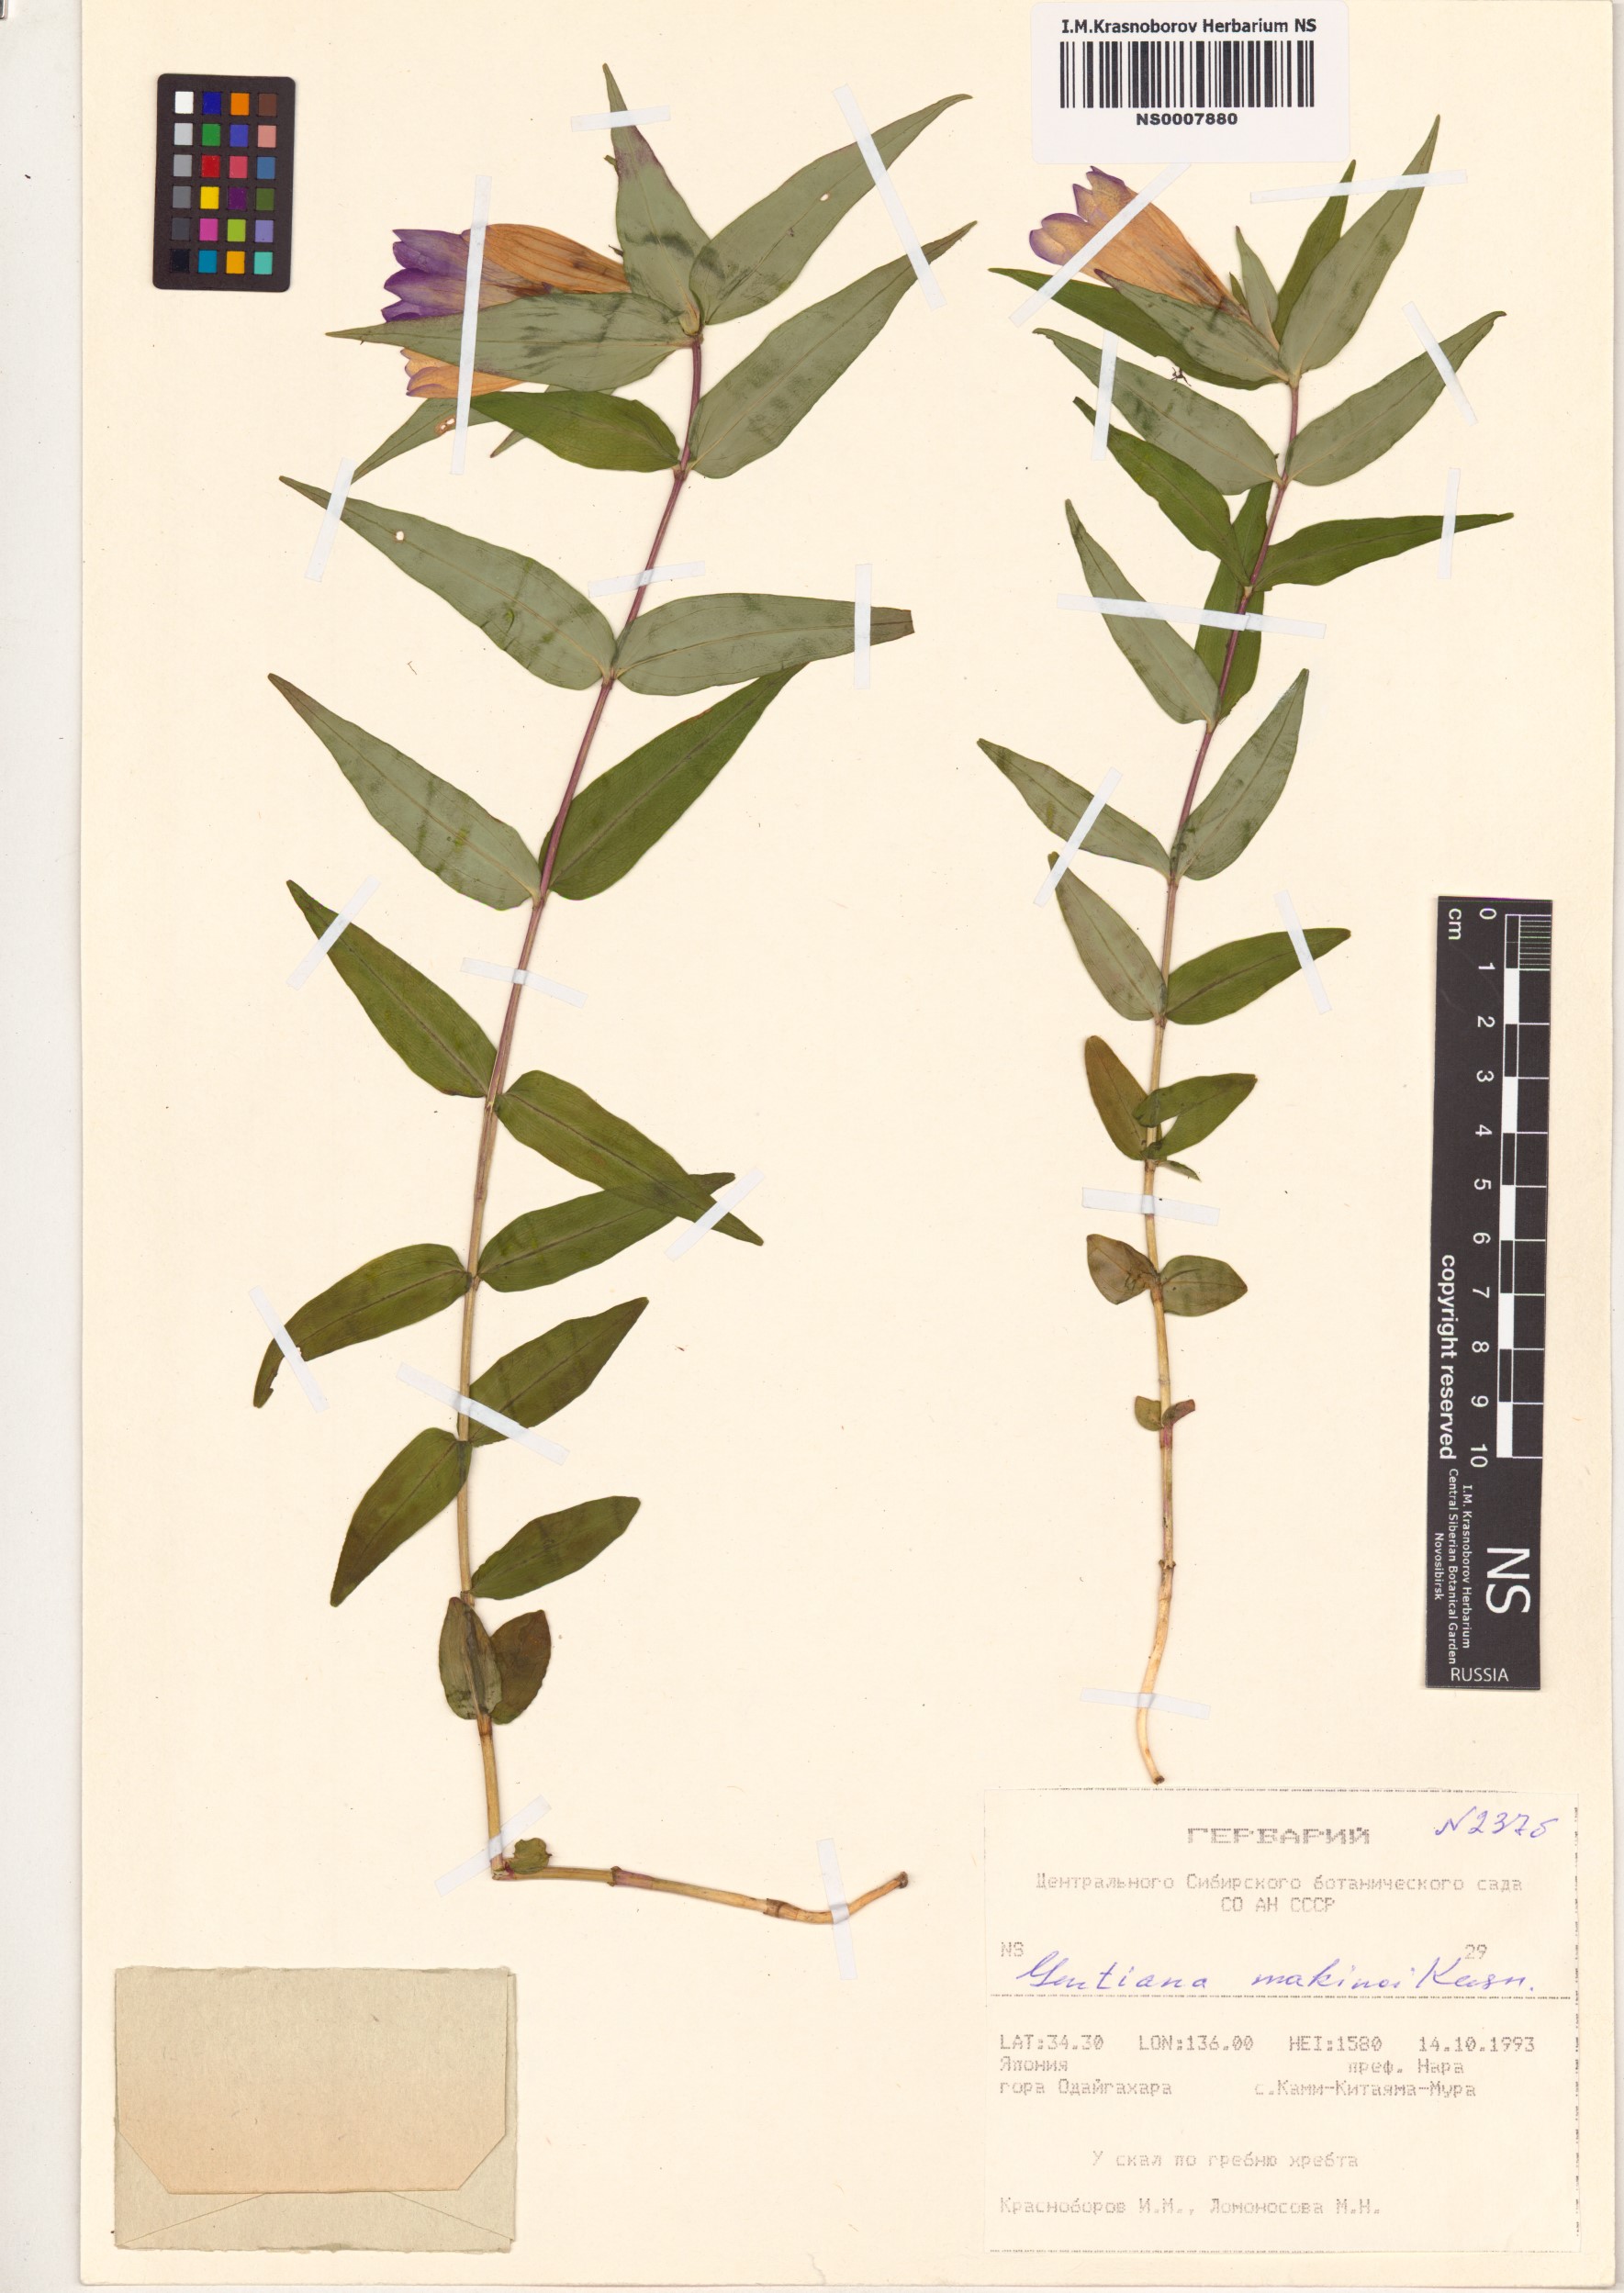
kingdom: Plantae
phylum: Tracheophyta
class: Magnoliopsida
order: Gentianales
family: Gentianaceae
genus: Gentiana
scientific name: Gentiana makinoi
